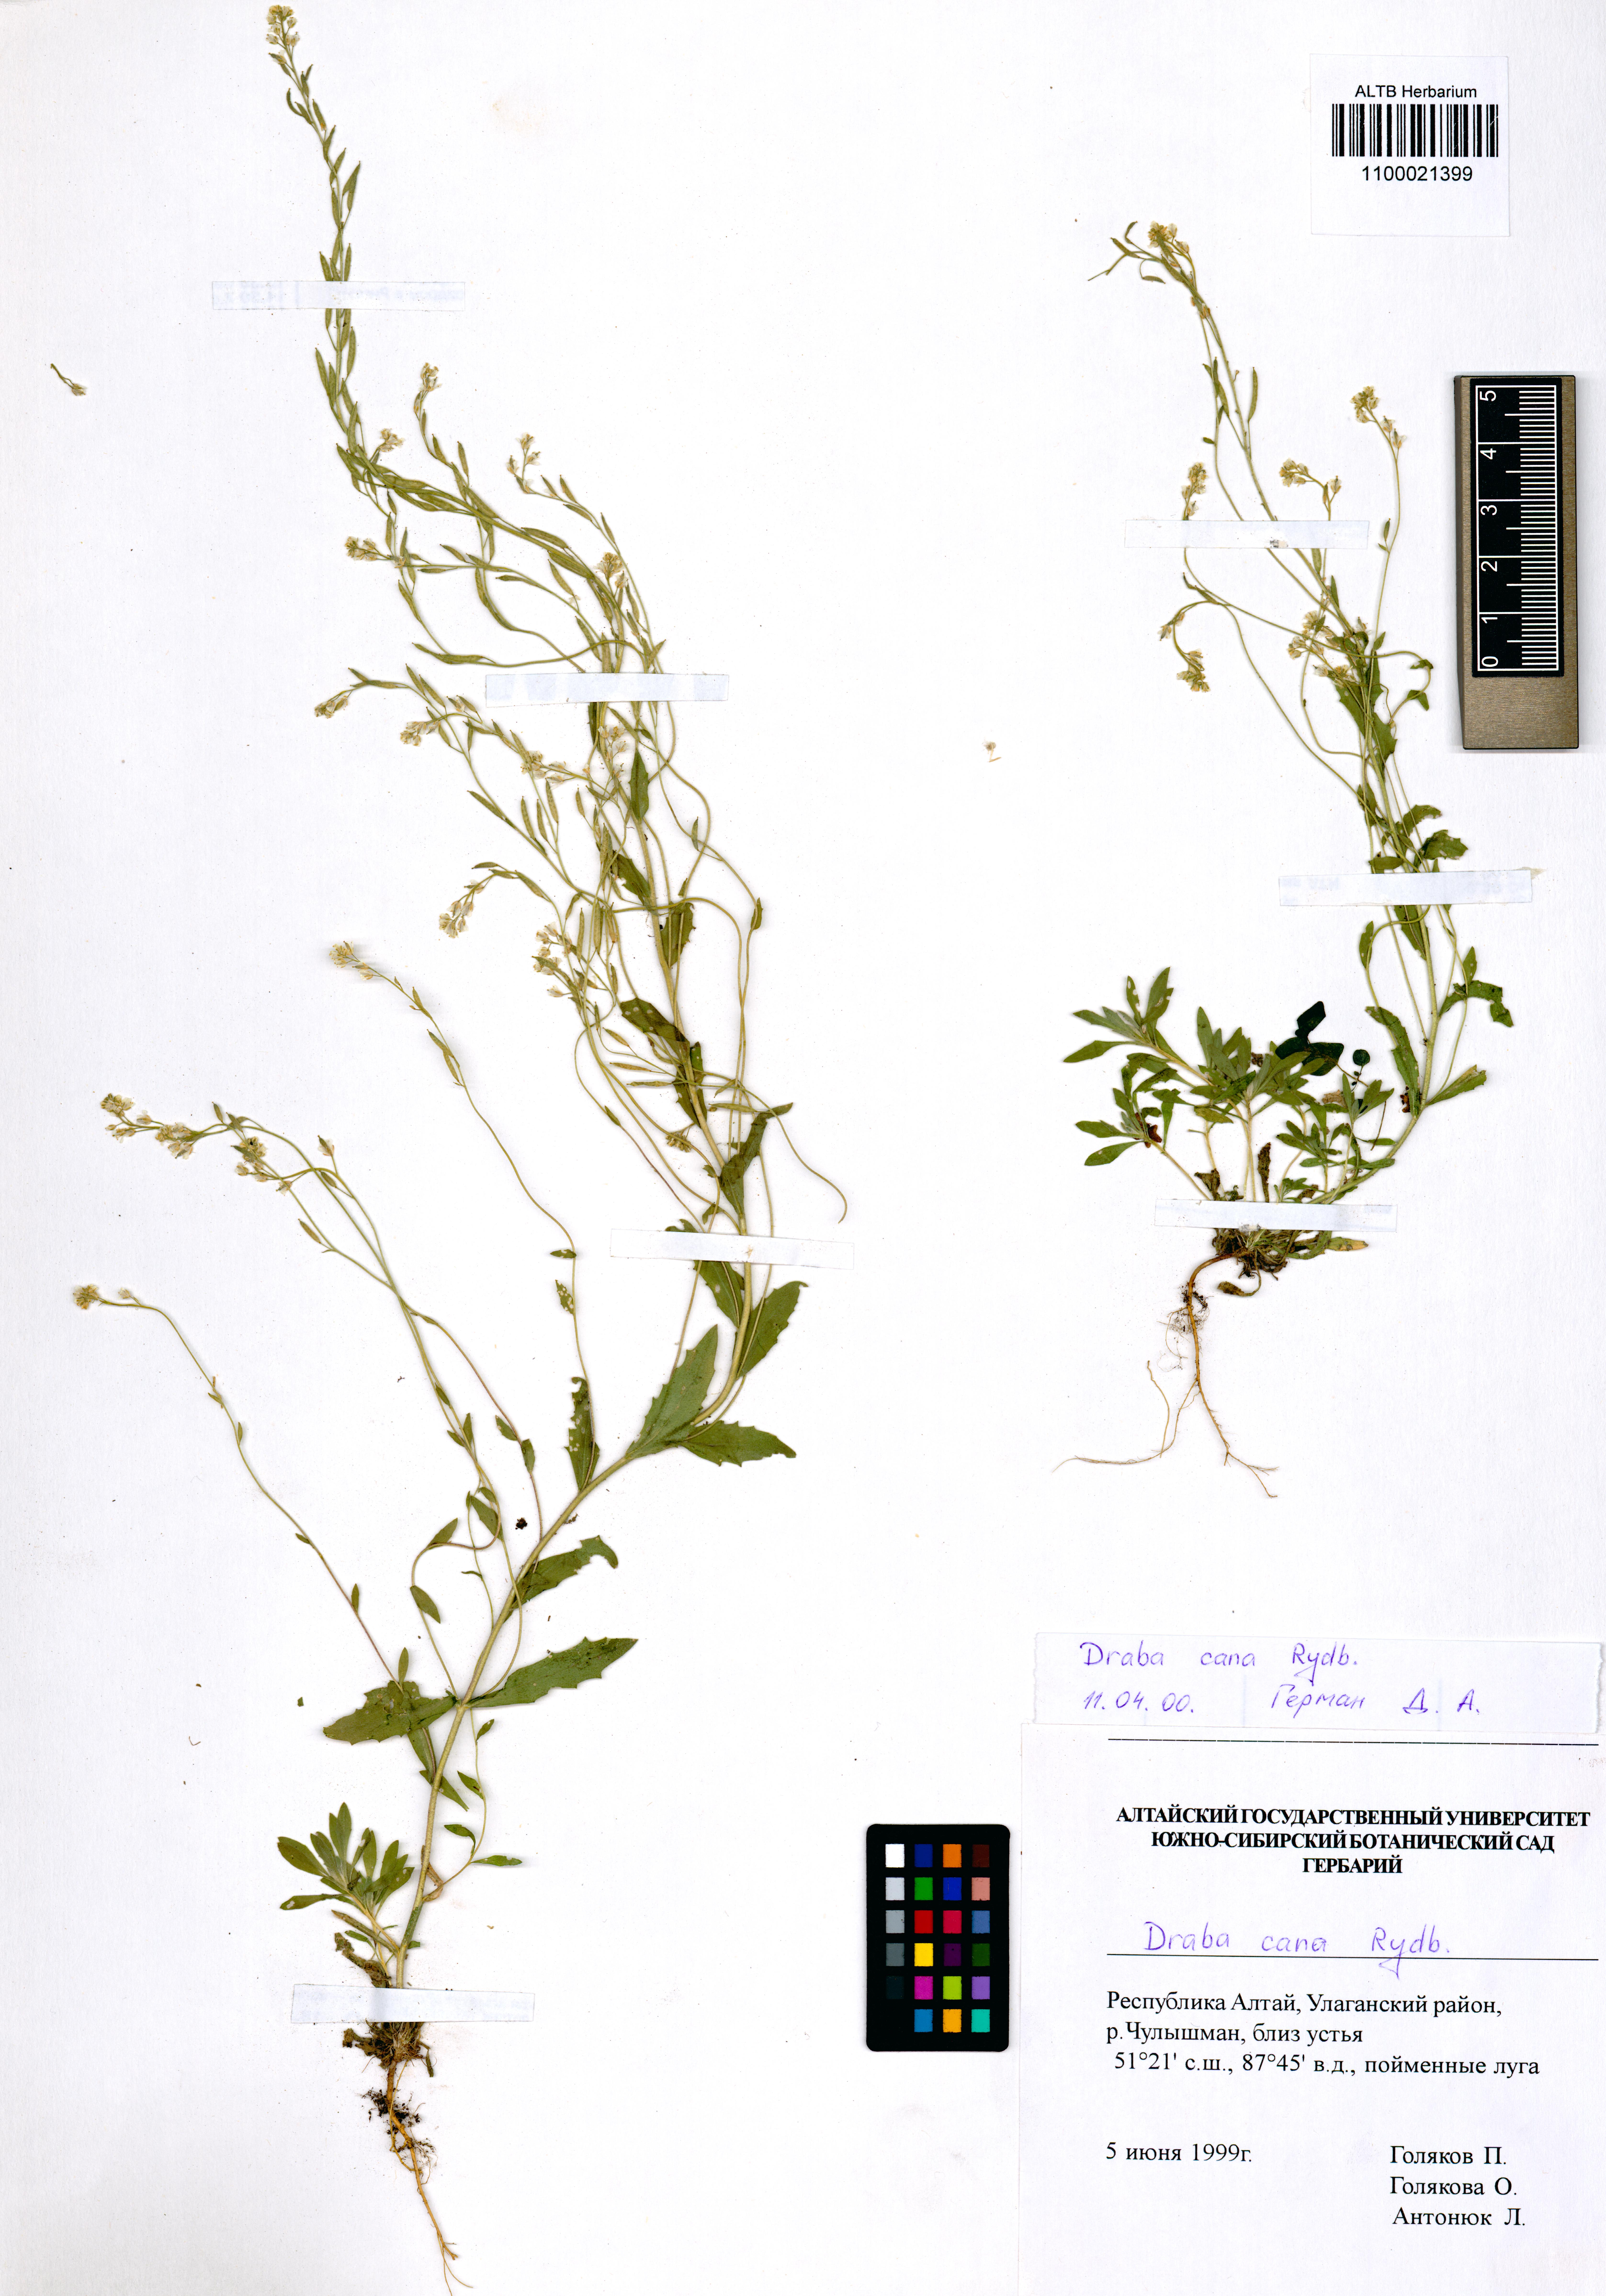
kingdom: Plantae
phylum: Tracheophyta
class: Magnoliopsida
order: Brassicales
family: Brassicaceae
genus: Draba
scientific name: Draba cana
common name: Hoary draba
